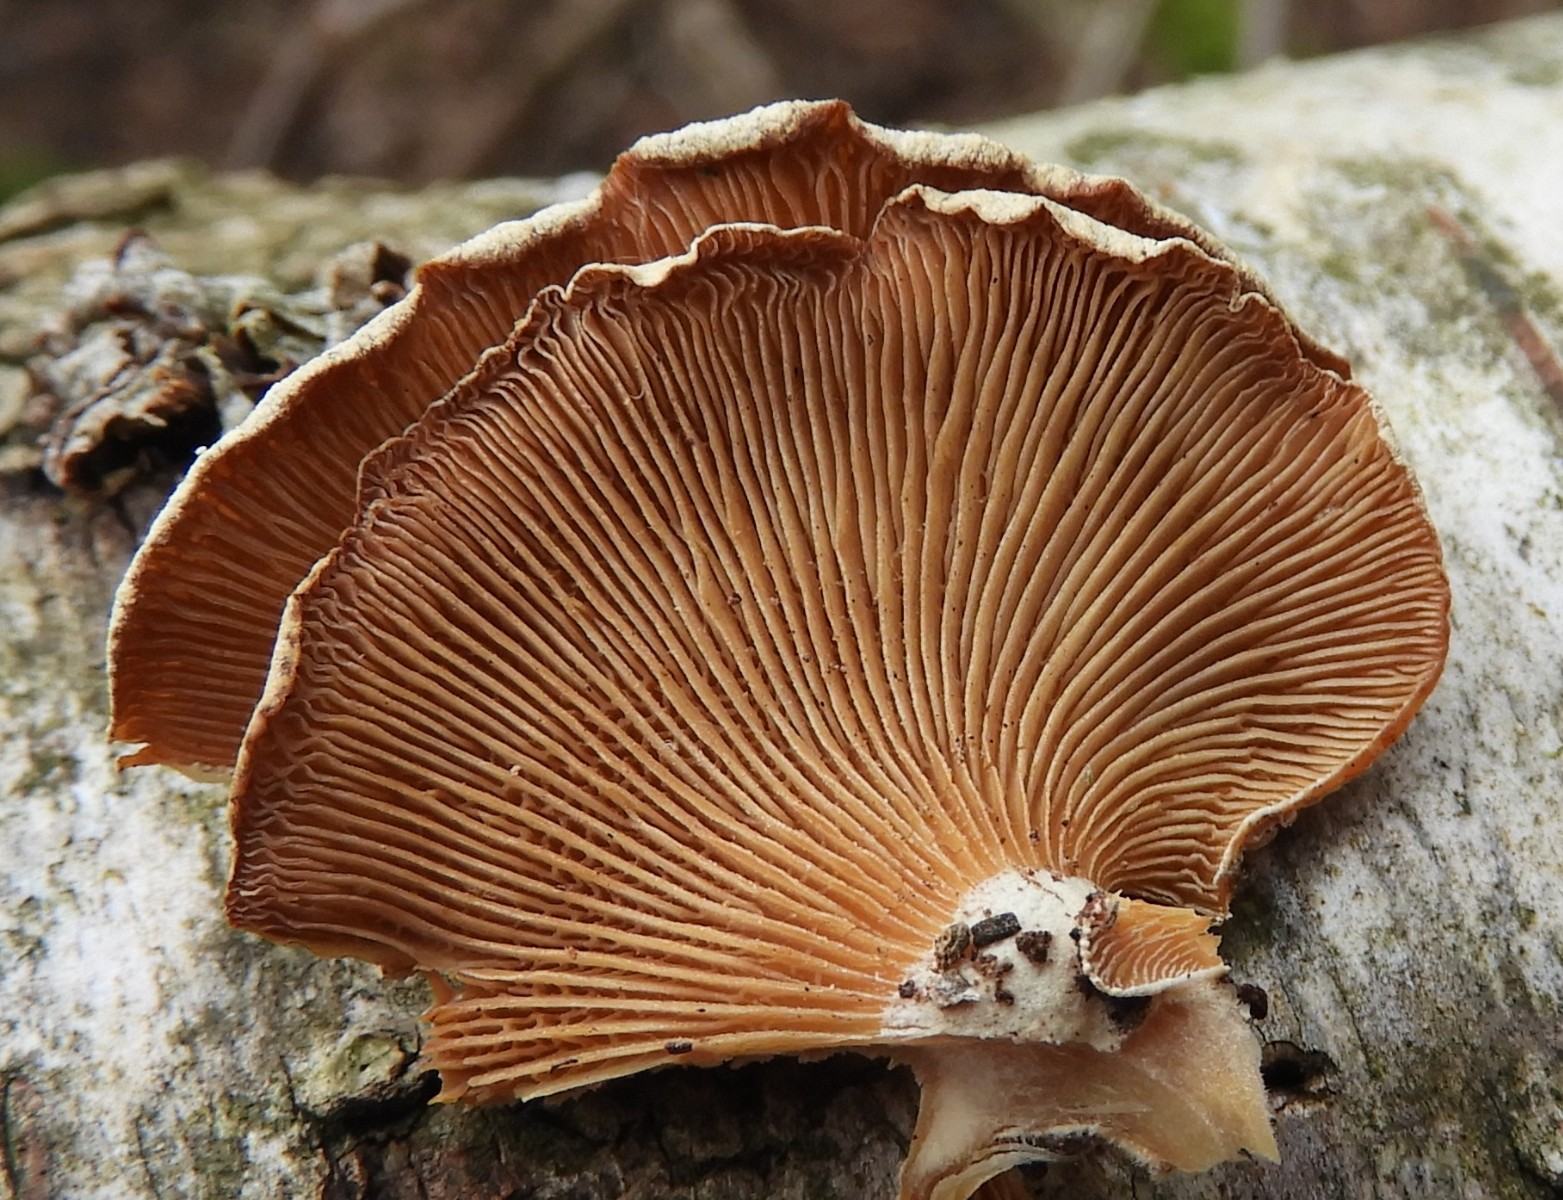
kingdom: Fungi
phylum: Basidiomycota
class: Agaricomycetes
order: Agaricales
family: Mycenaceae
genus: Panellus
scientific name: Panellus stipticus
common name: kliddet epaulethat
